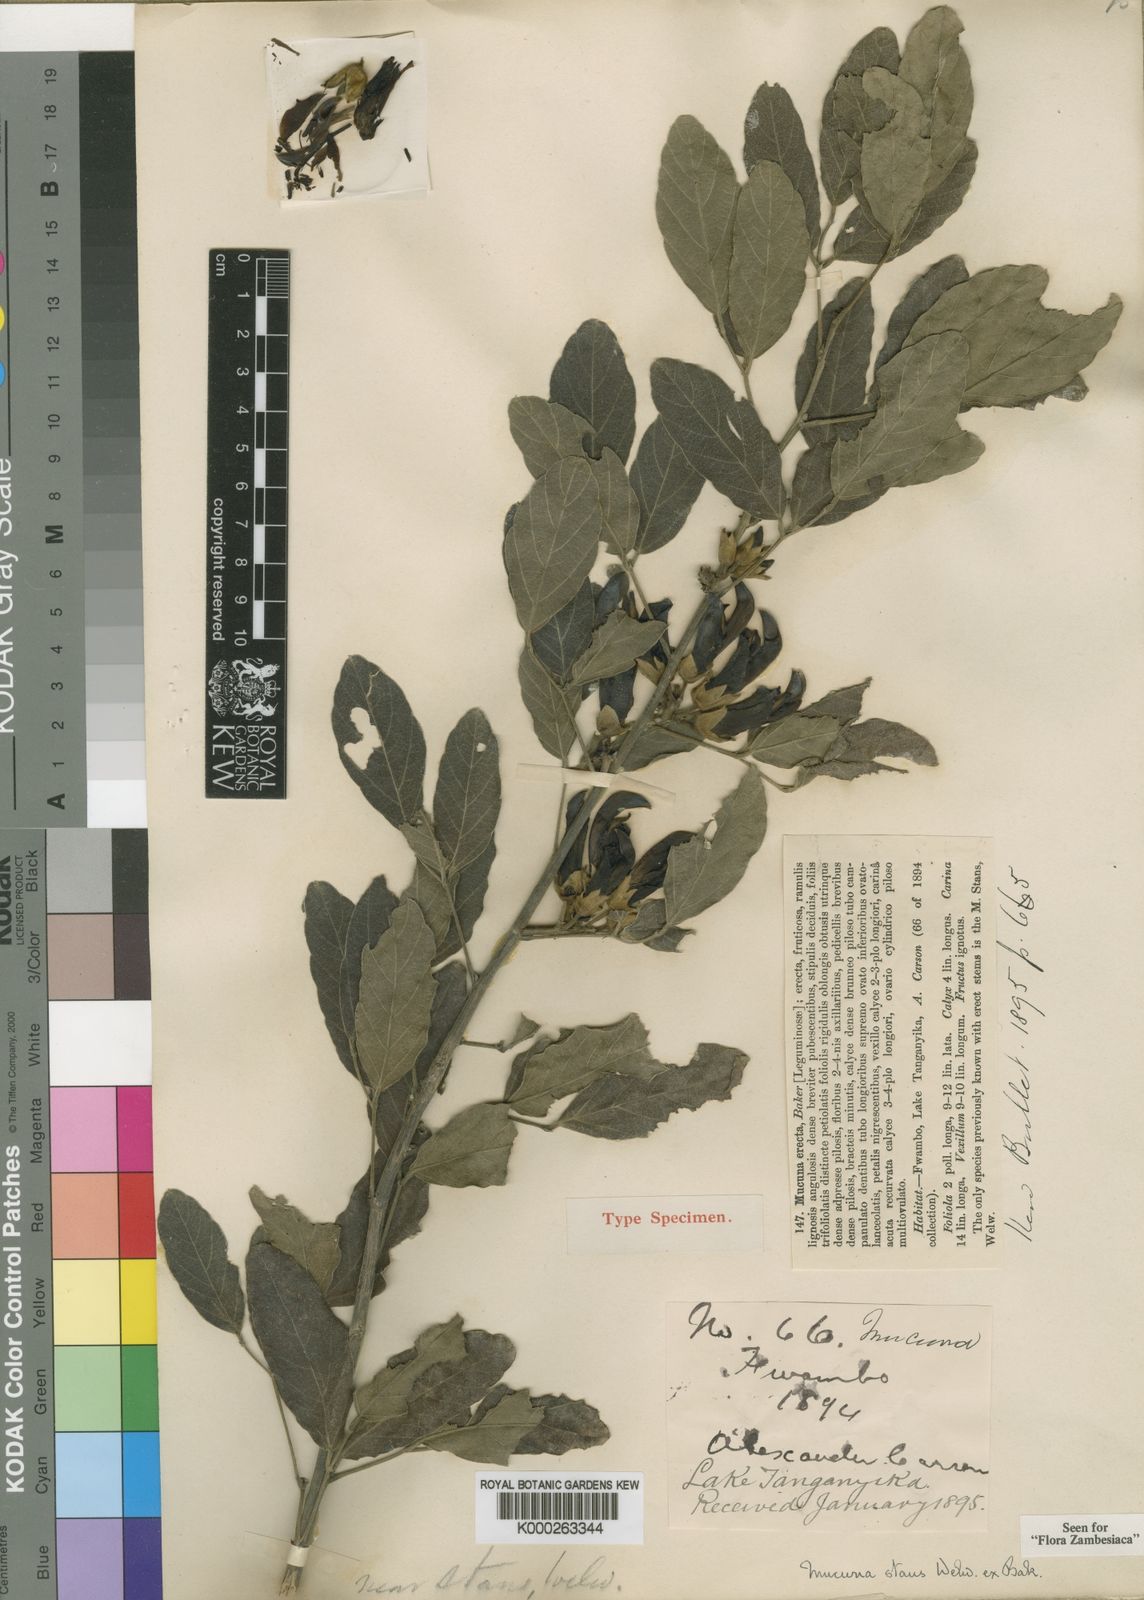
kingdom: Plantae
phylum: Tracheophyta
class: Magnoliopsida
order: Fabales
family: Fabaceae
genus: Mucuna
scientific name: Mucuna stans
